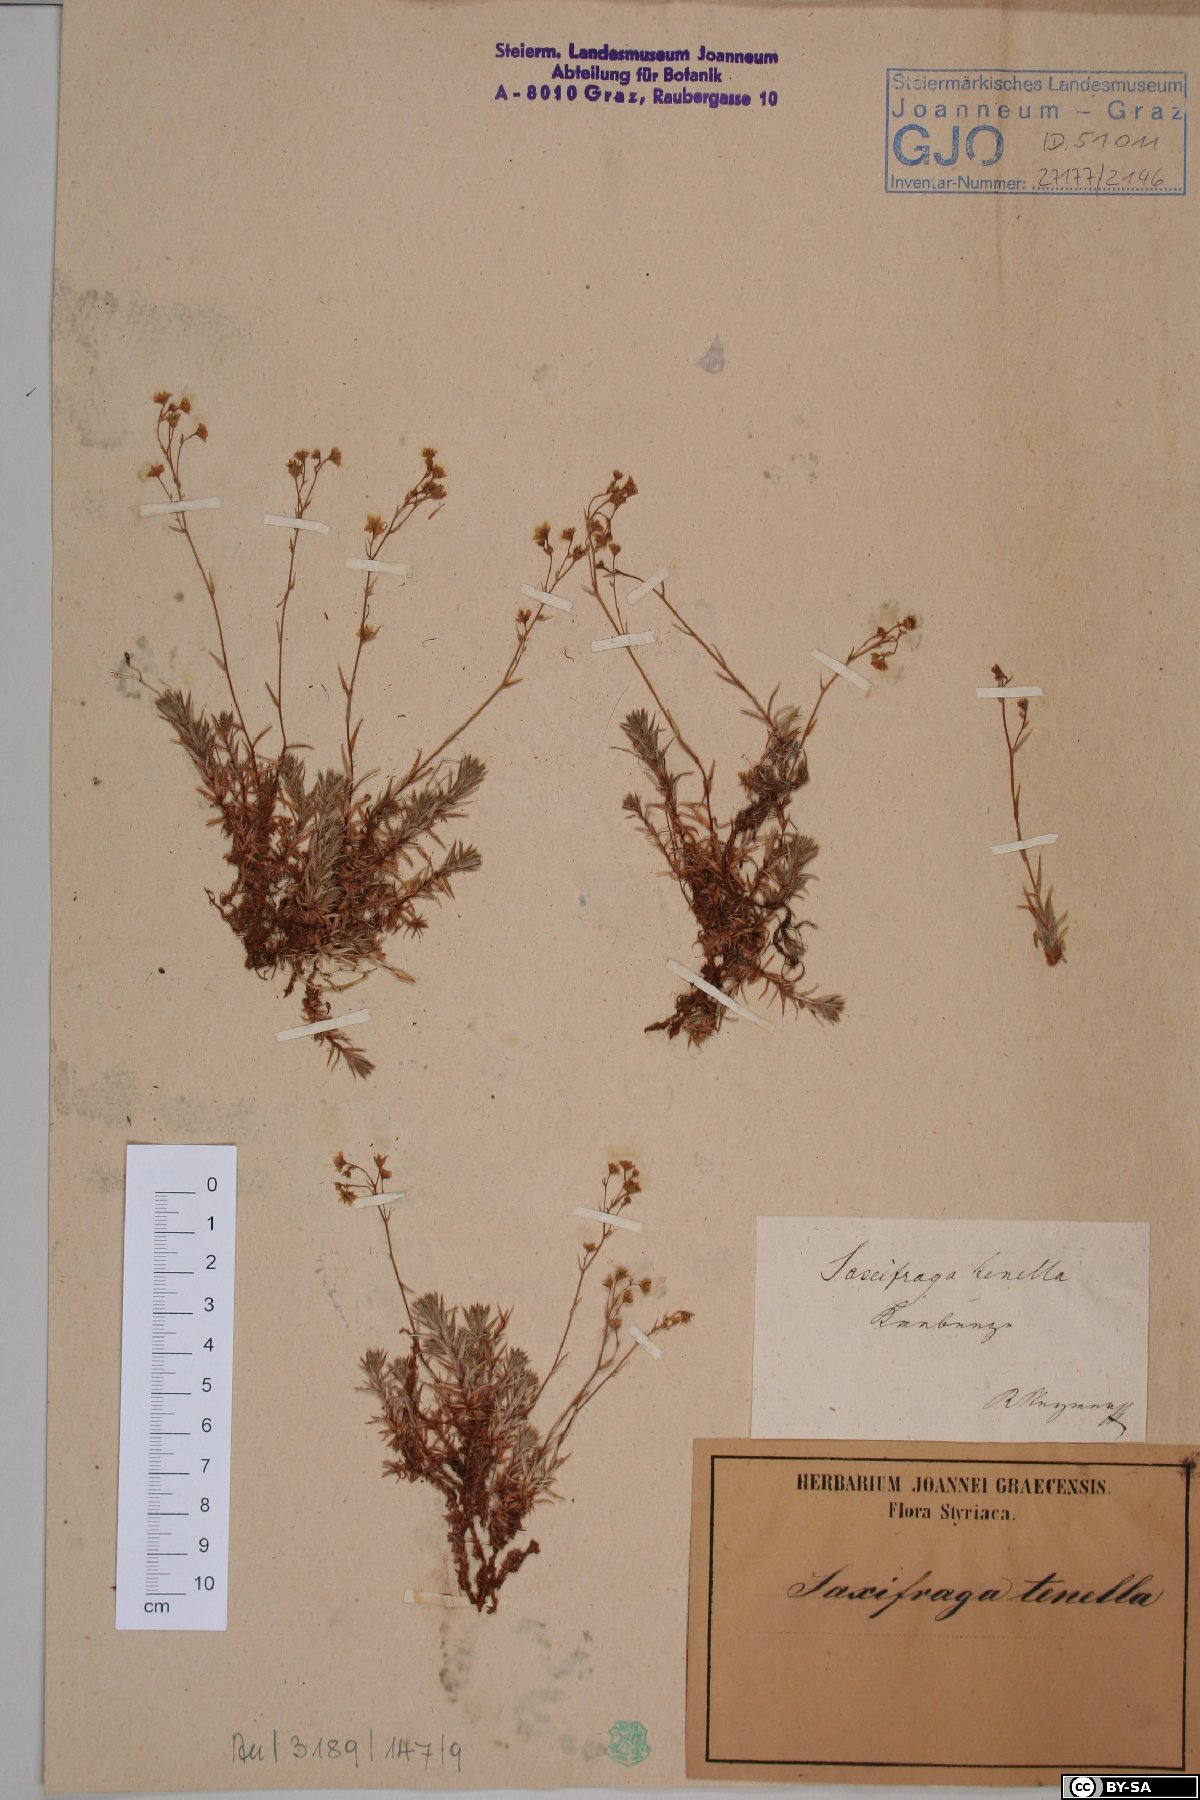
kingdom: Plantae
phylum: Tracheophyta
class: Magnoliopsida
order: Saxifragales
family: Saxifragaceae
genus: Saxifraga
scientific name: Saxifraga tenella
